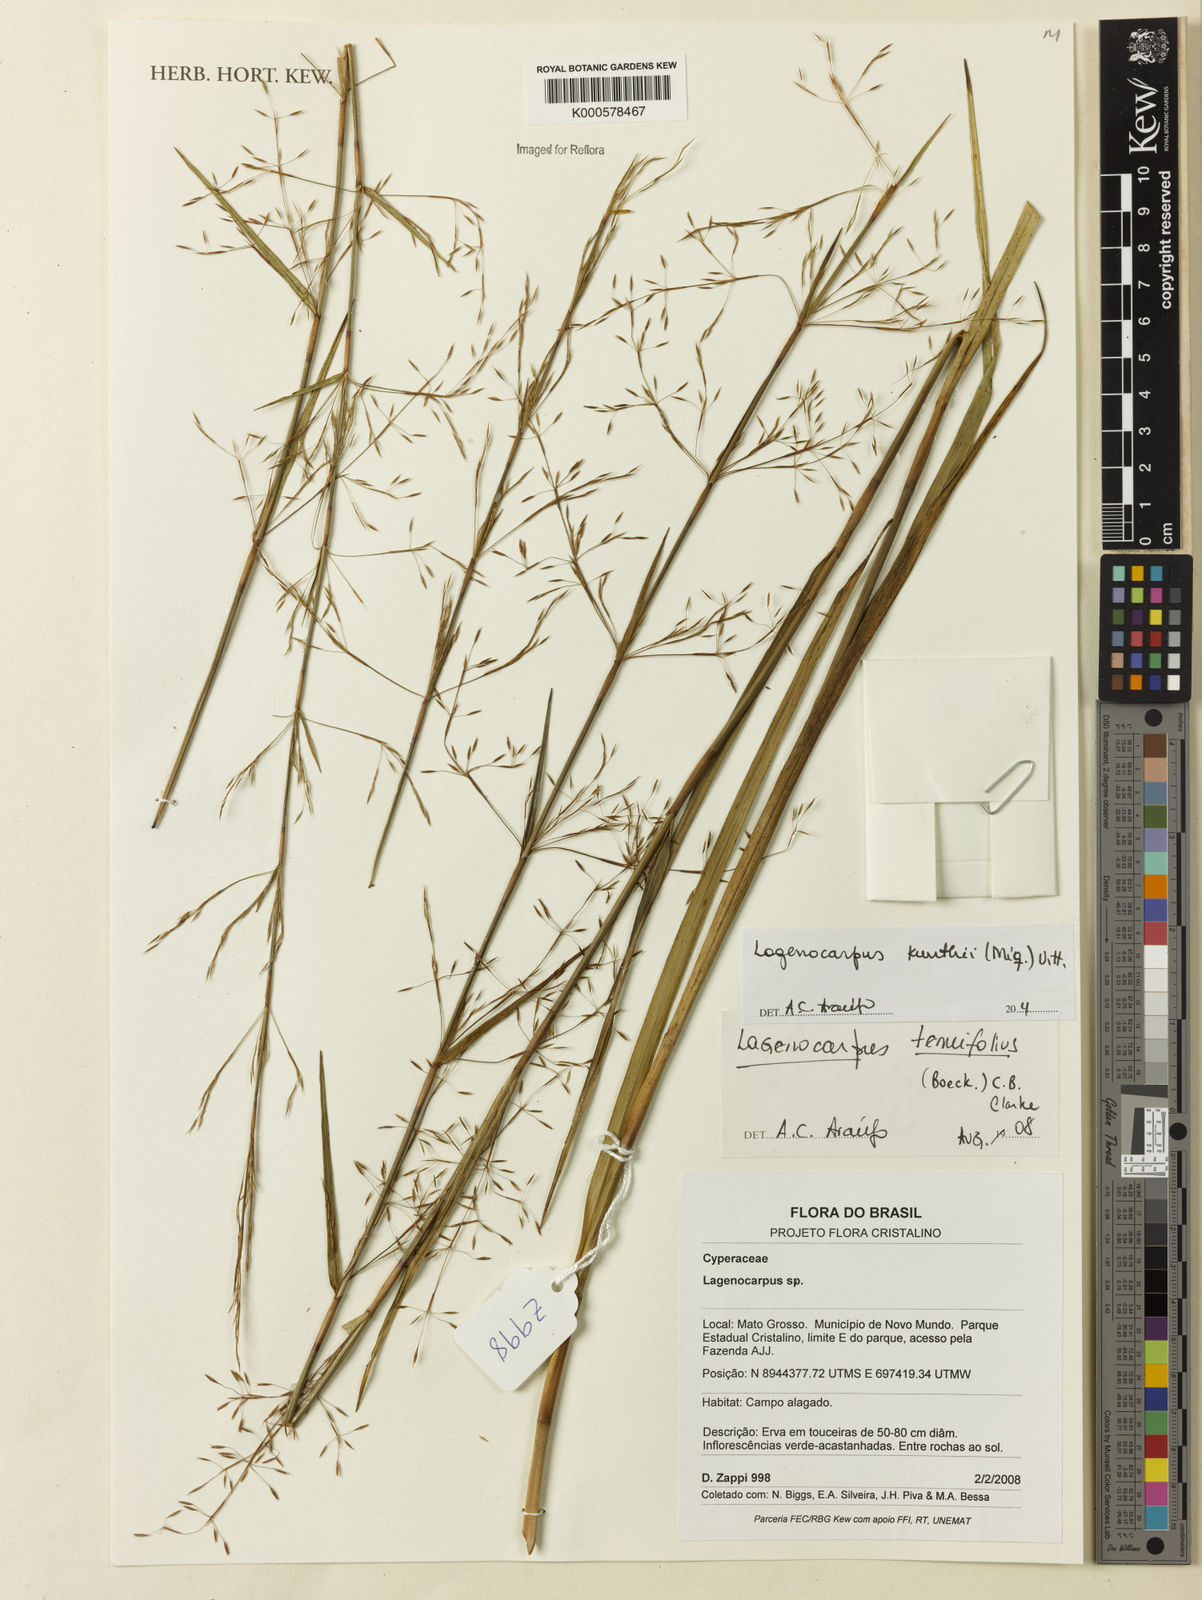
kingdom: Plantae
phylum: Tracheophyta
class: Liliopsida
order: Poales
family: Cyperaceae
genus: Cryptangium
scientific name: Cryptangium verticillatum
